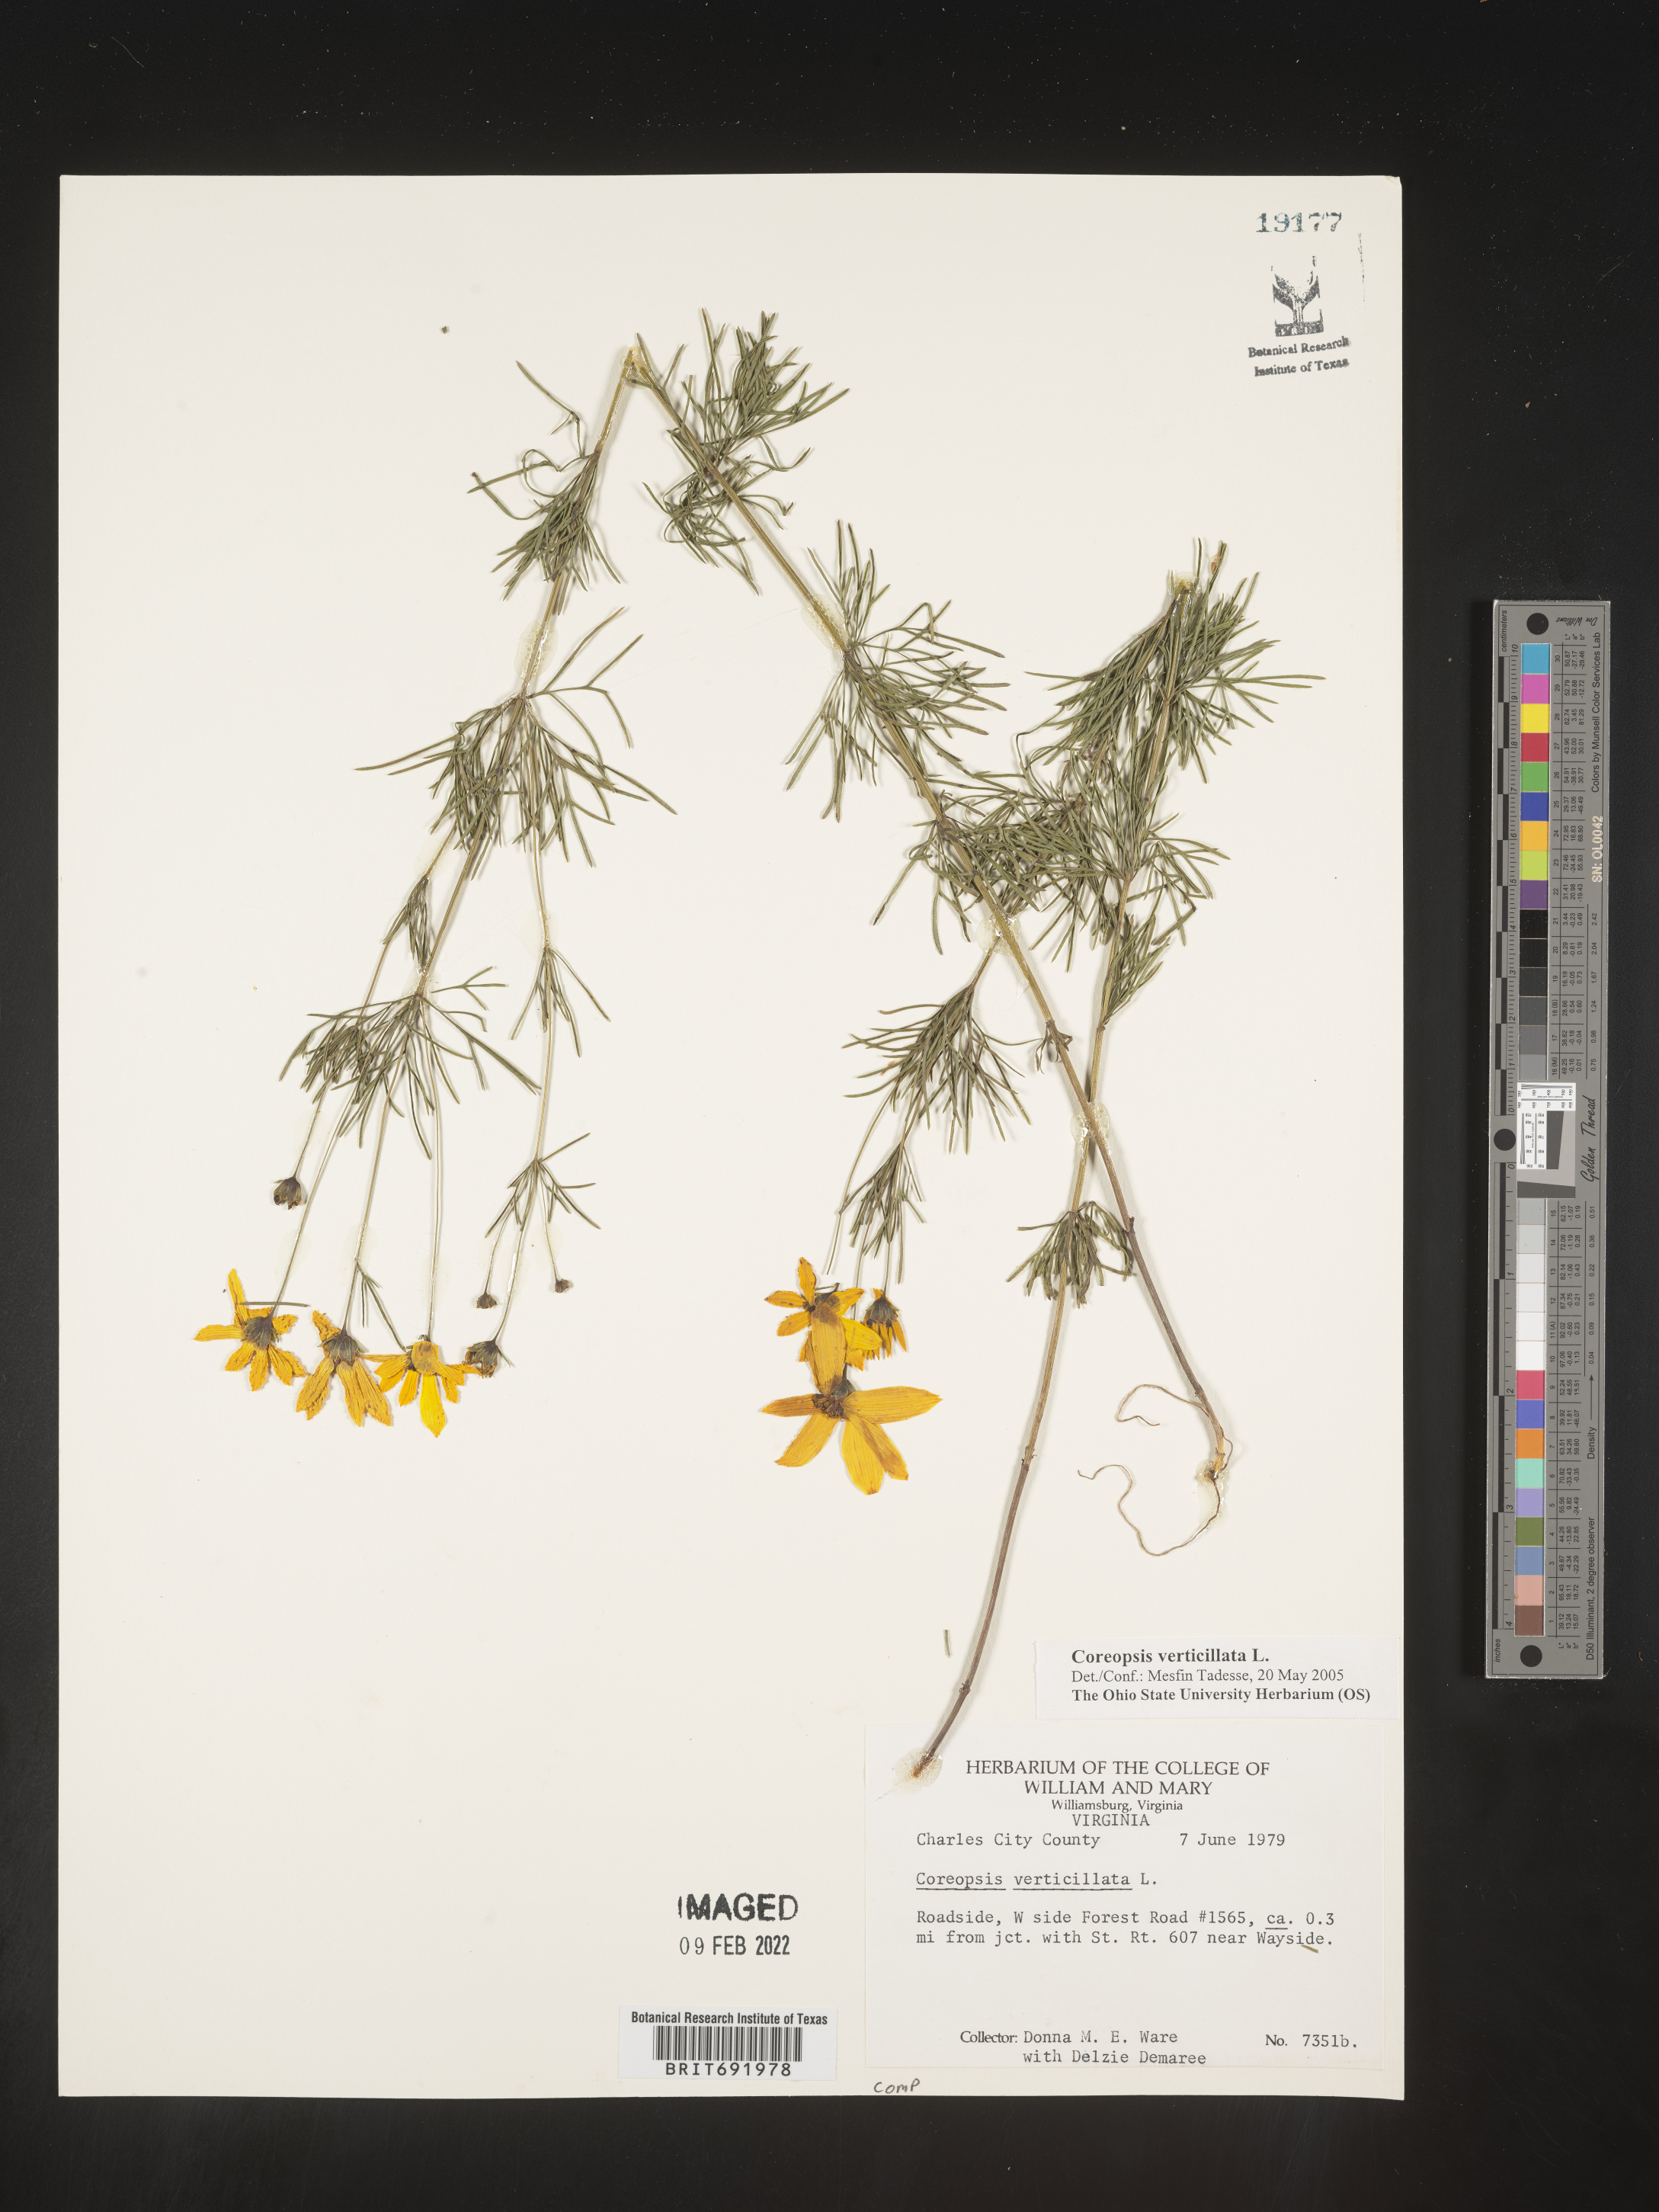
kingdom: Plantae
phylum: Tracheophyta
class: Magnoliopsida
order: Asterales
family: Asteraceae
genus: Coreopsis
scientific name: Coreopsis verticillata
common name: Whorled tickseed
